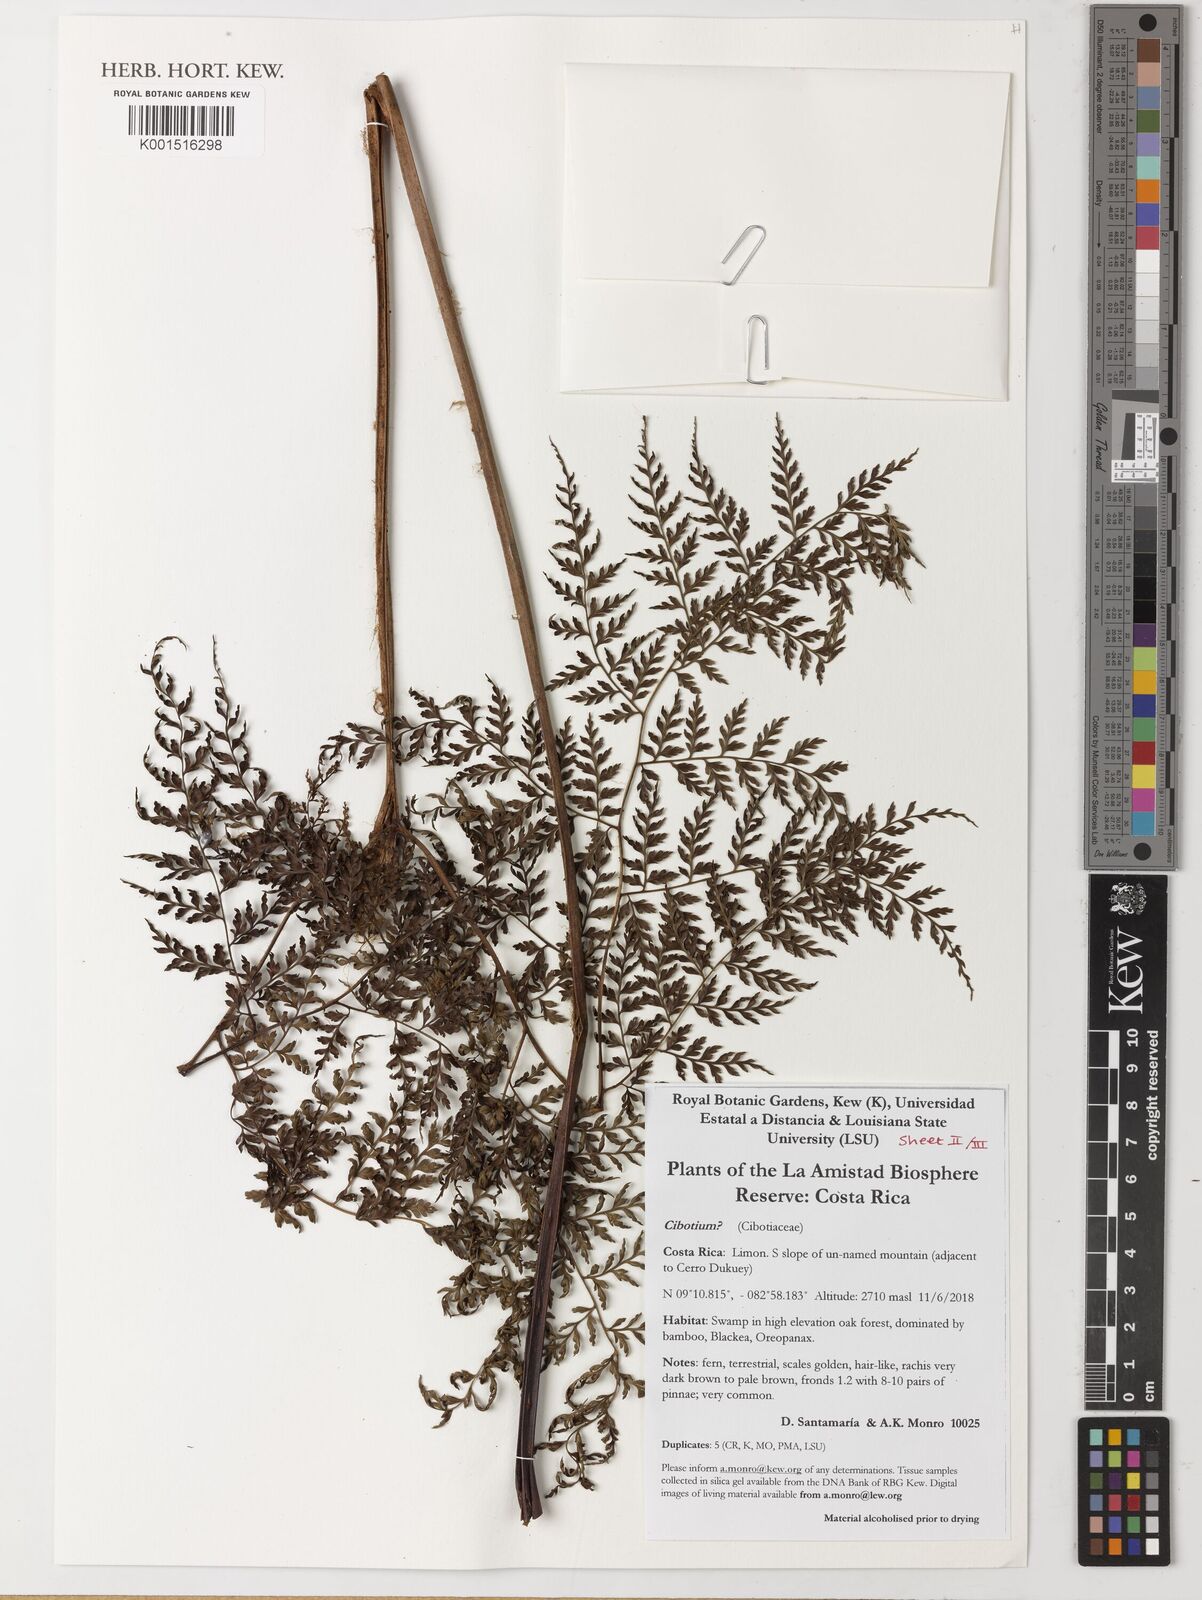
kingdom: Plantae
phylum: Tracheophyta
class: Polypodiopsida
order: Cyatheales
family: Cibotiaceae
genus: Cibotium
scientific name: Cibotium
